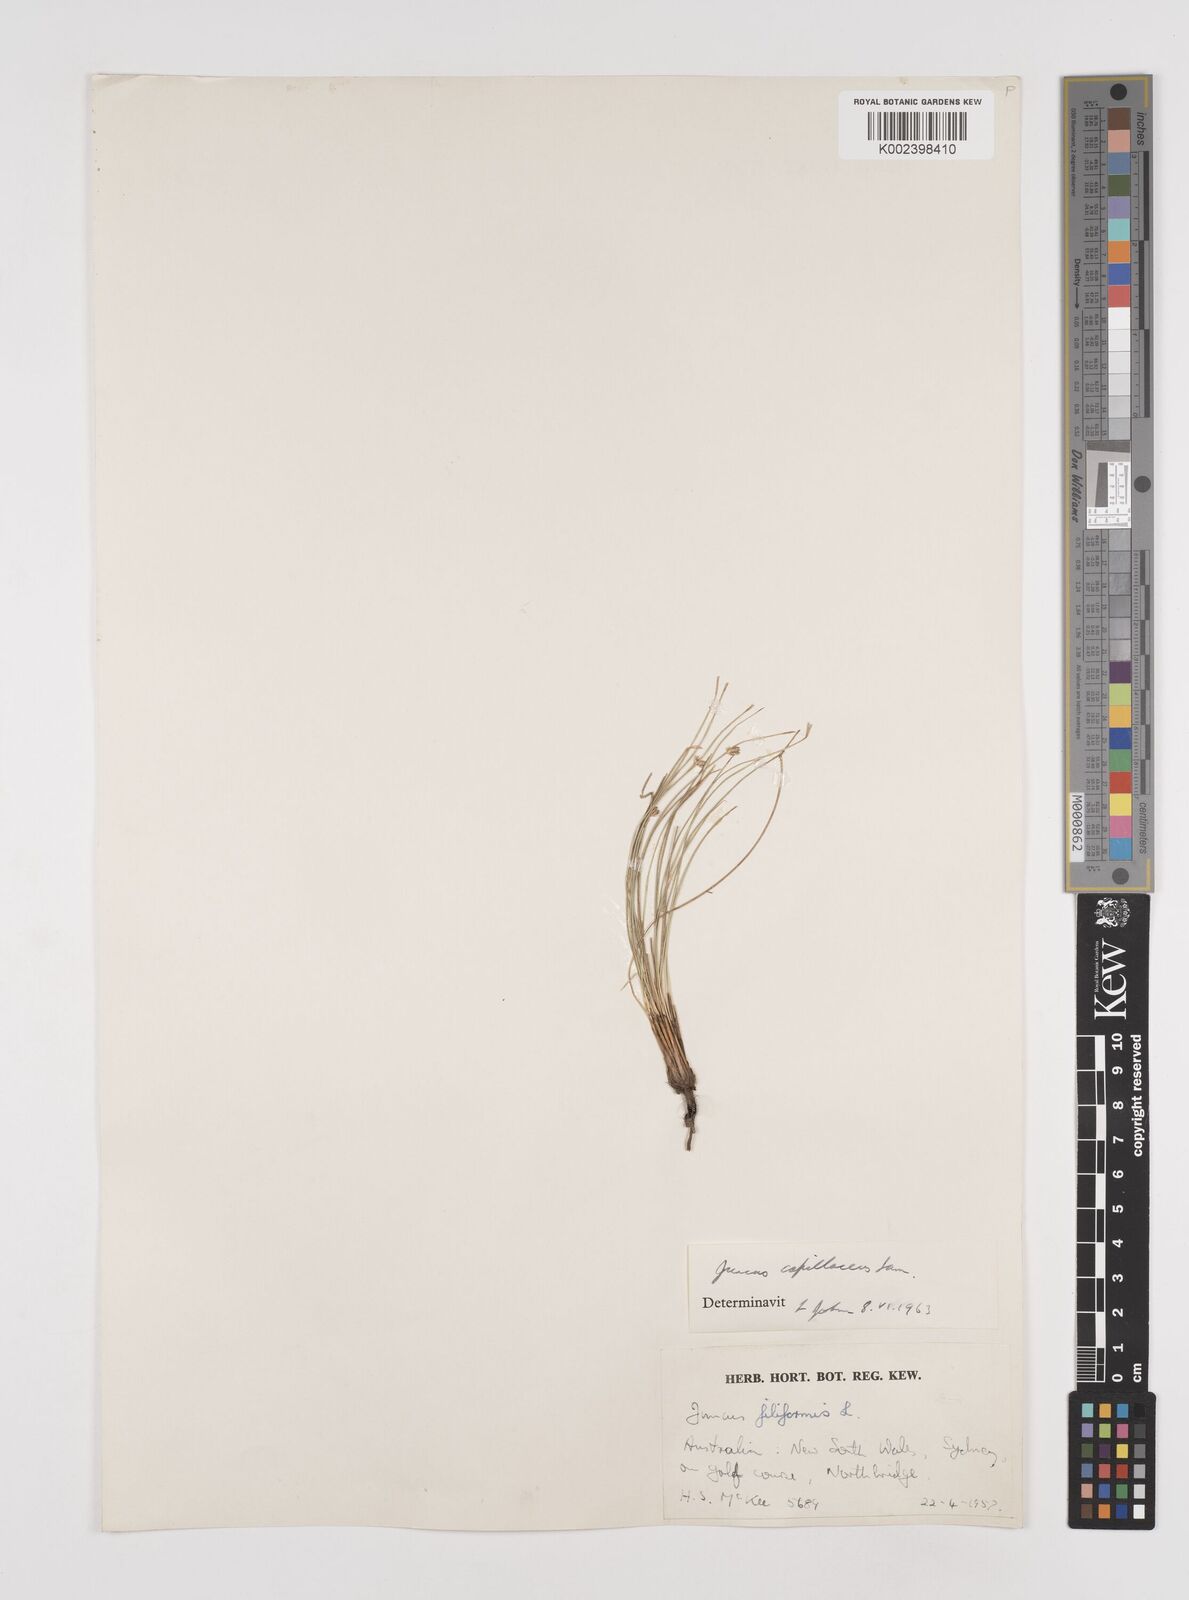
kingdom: Plantae
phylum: Tracheophyta
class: Liliopsida
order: Poales
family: Juncaceae
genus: Juncus
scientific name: Juncus capillaceus
